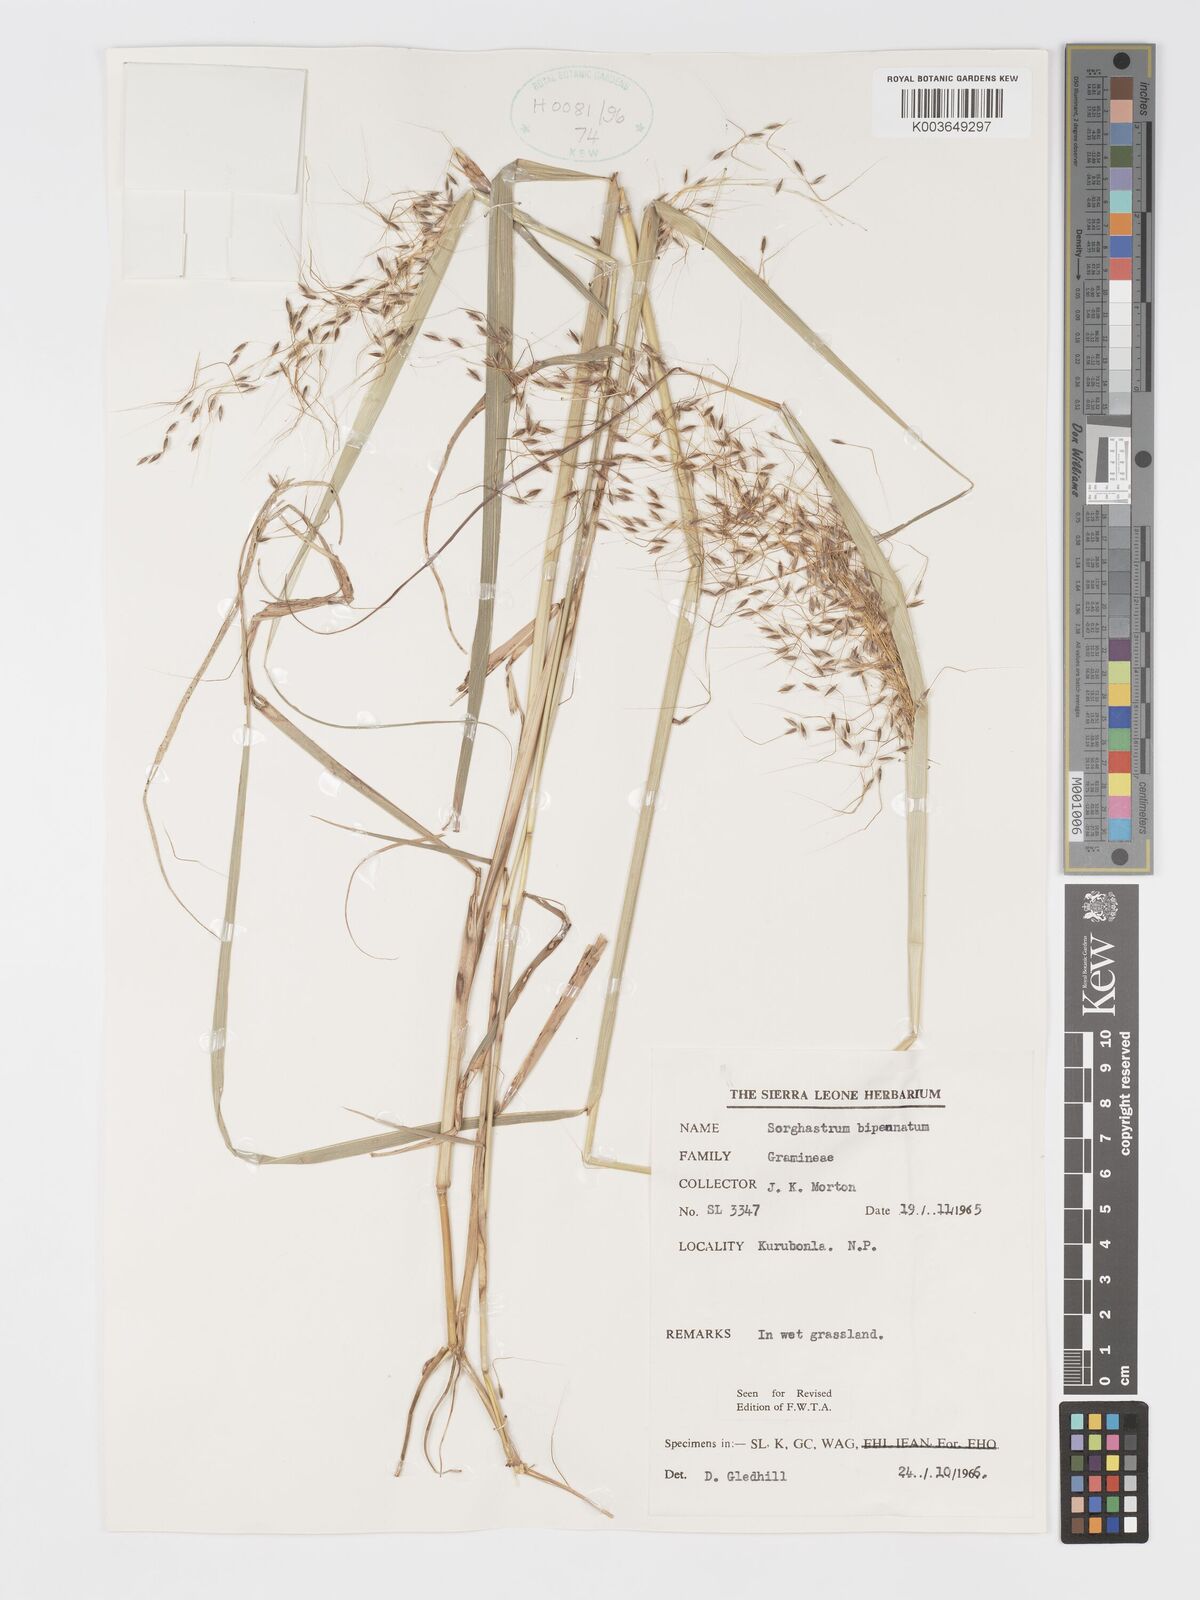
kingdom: Plantae
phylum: Tracheophyta
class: Liliopsida
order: Poales
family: Poaceae
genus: Sorghastrum
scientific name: Sorghastrum incompletum
